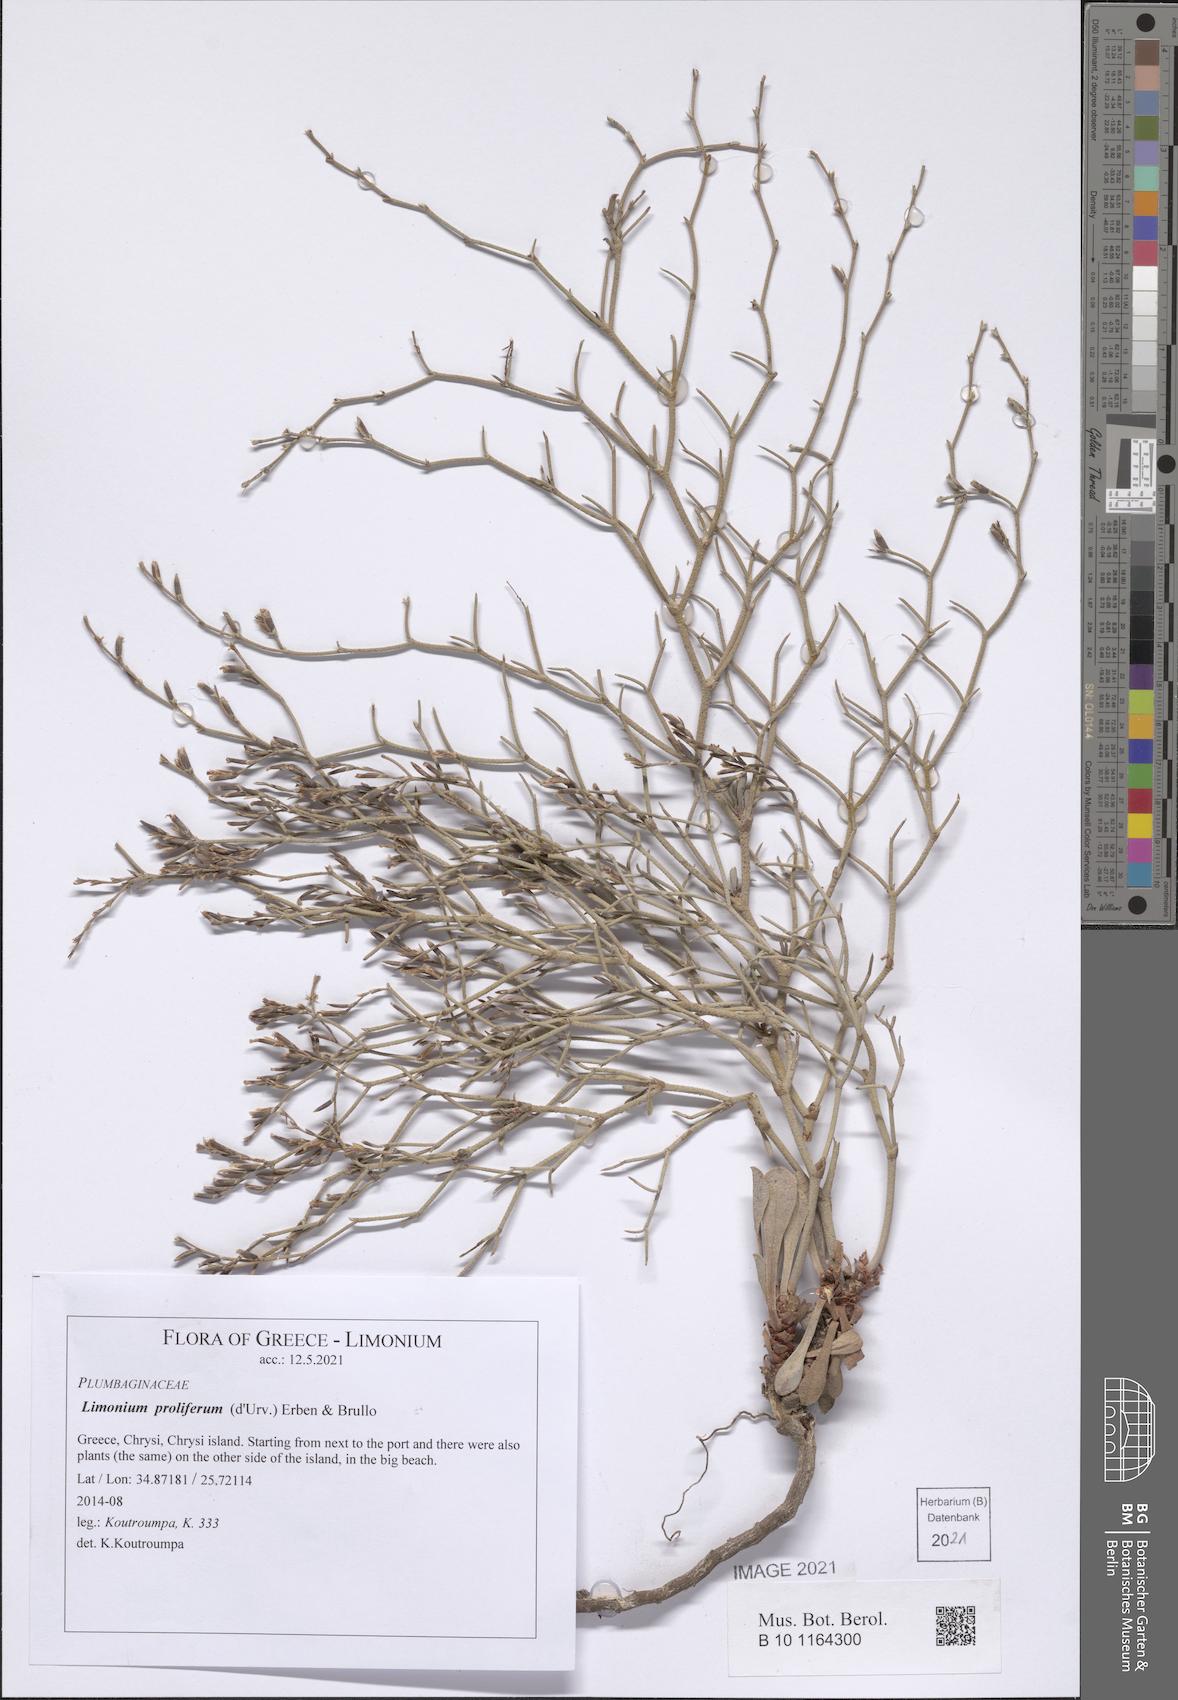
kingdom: Plantae
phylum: Tracheophyta
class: Magnoliopsida
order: Caryophyllales
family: Plumbaginaceae
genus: Limonium
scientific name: Limonium proliferum
